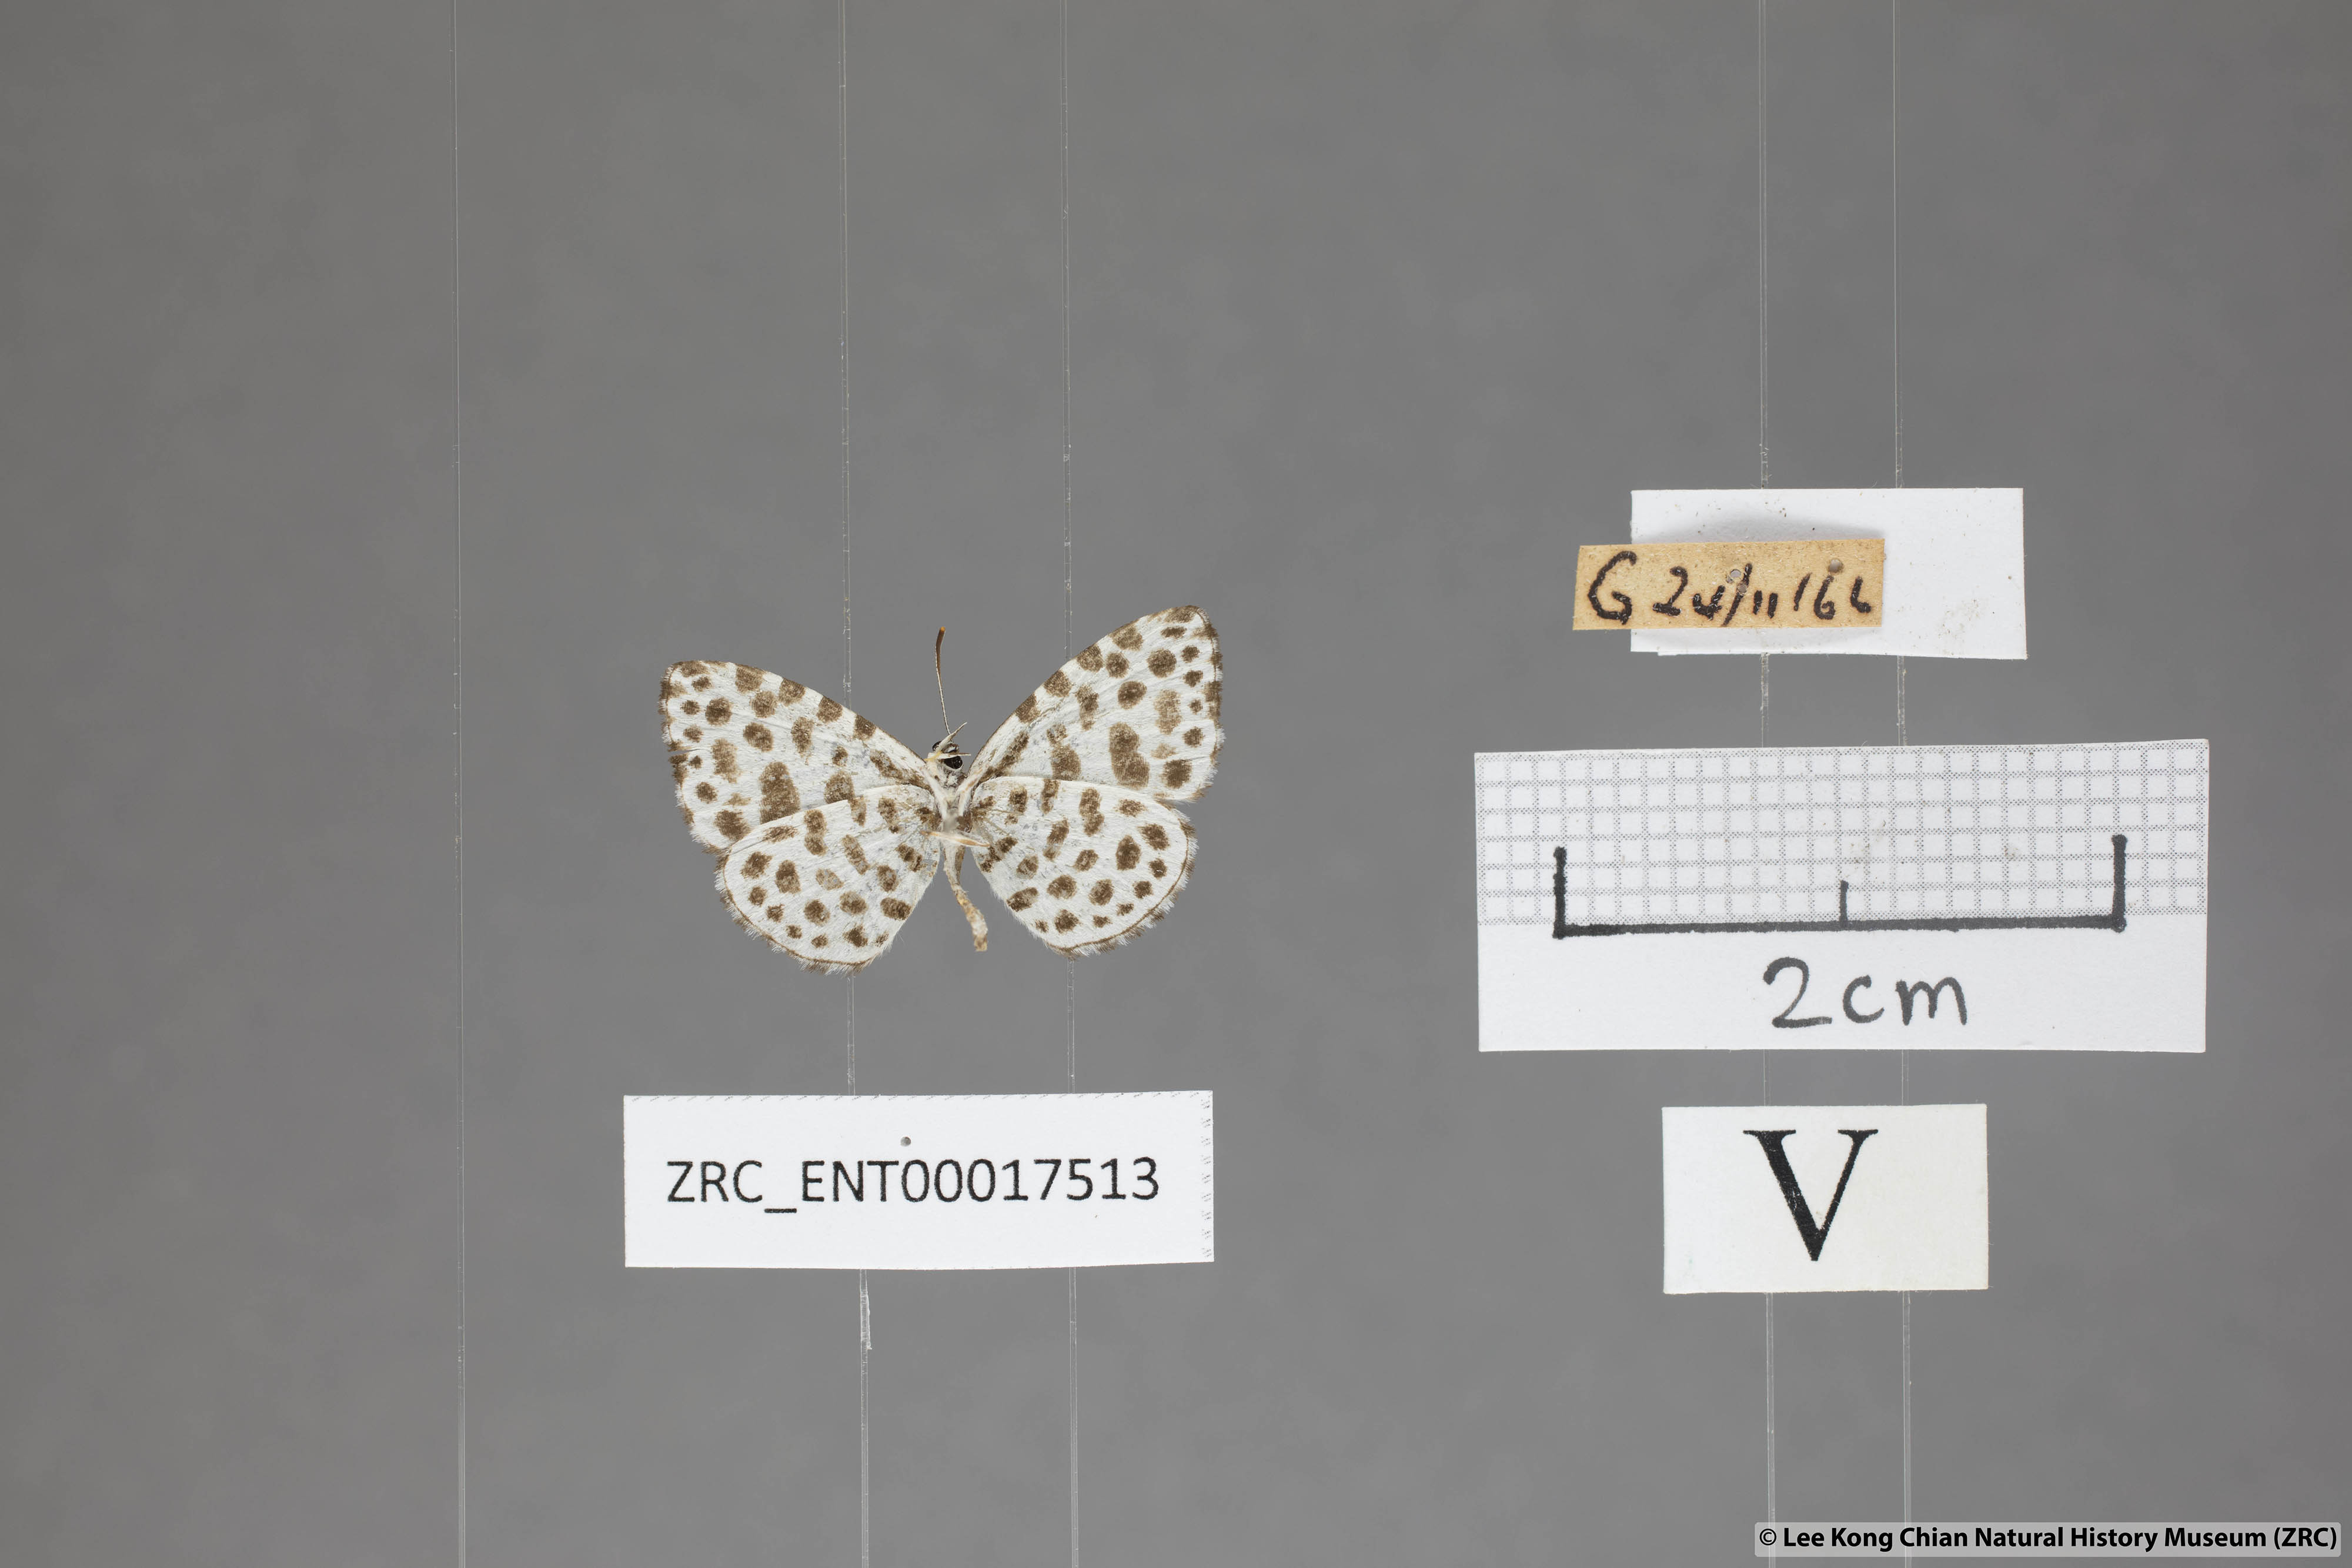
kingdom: Animalia
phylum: Arthropoda
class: Insecta
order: Lepidoptera
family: Lycaenidae
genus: Taraka
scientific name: Taraka hamada
